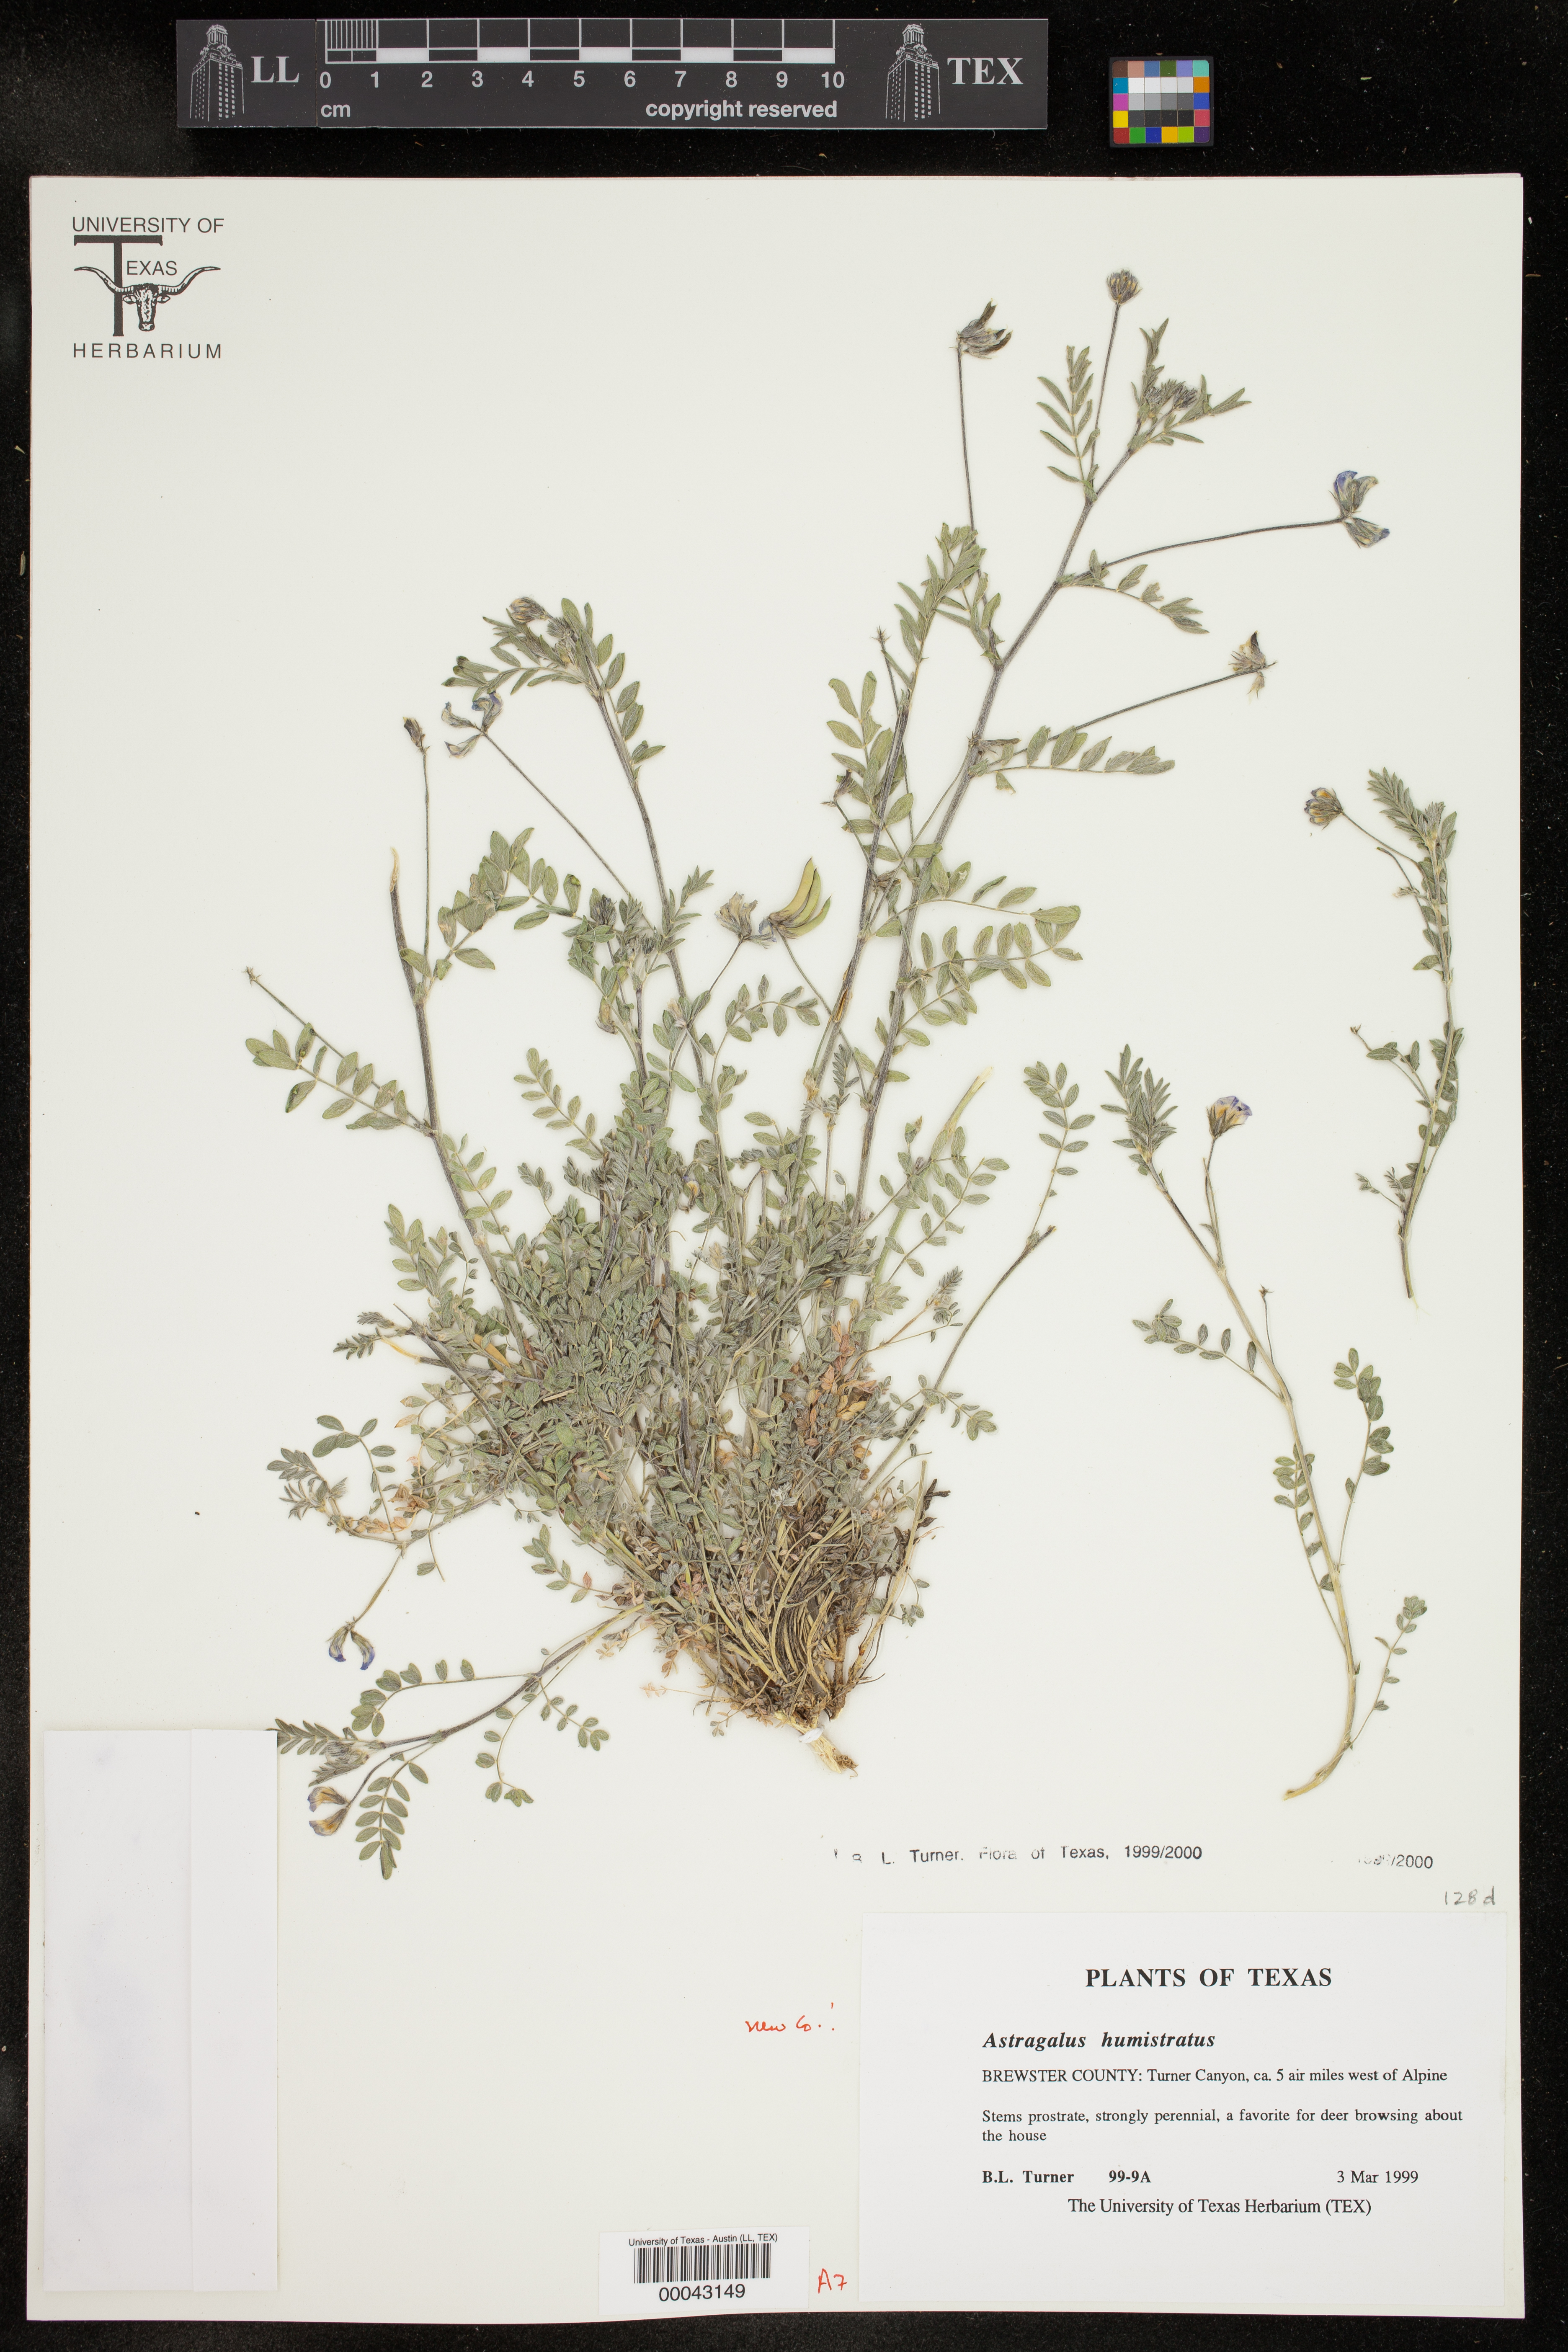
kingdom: Plantae
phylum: Tracheophyta
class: Magnoliopsida
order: Fabales
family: Fabaceae
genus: Astragalus
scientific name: Astragalus humistratus
